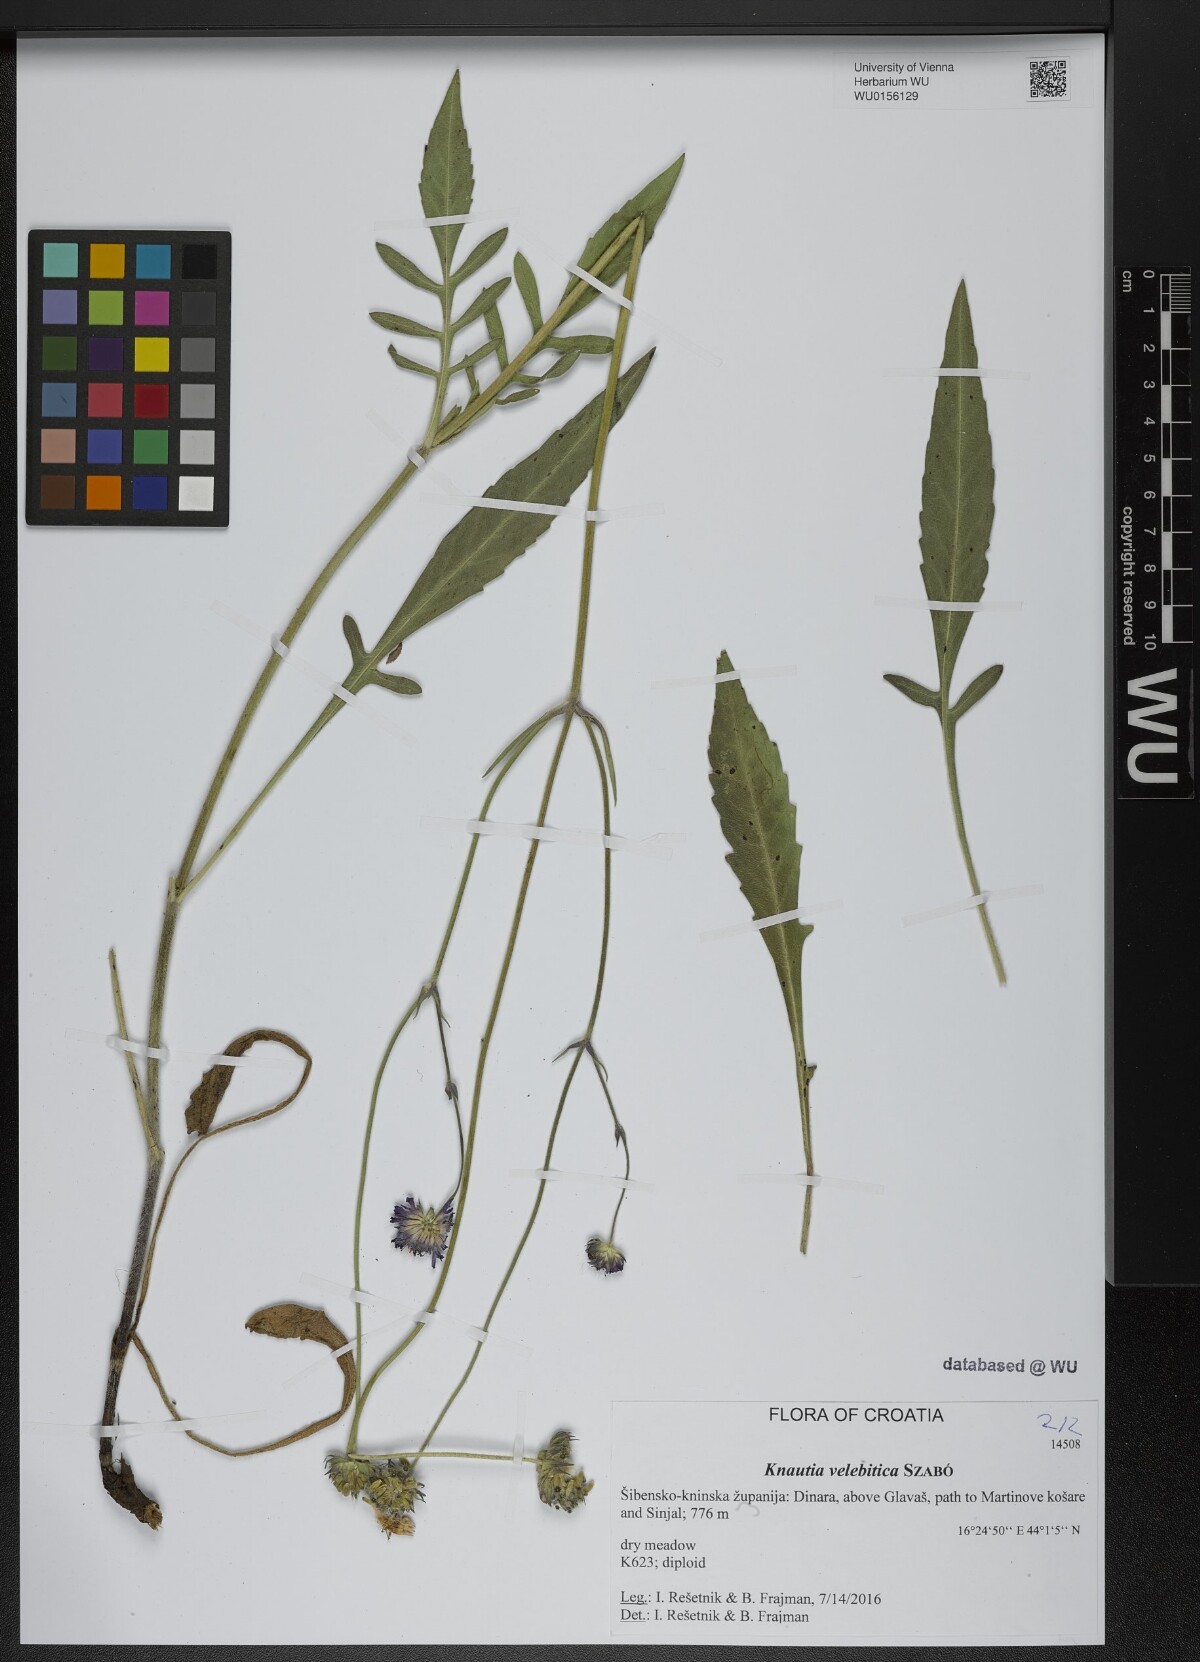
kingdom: Plantae
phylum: Tracheophyta
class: Magnoliopsida
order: Dipsacales
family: Caprifoliaceae
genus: Knautia
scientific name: Knautia velebitica
